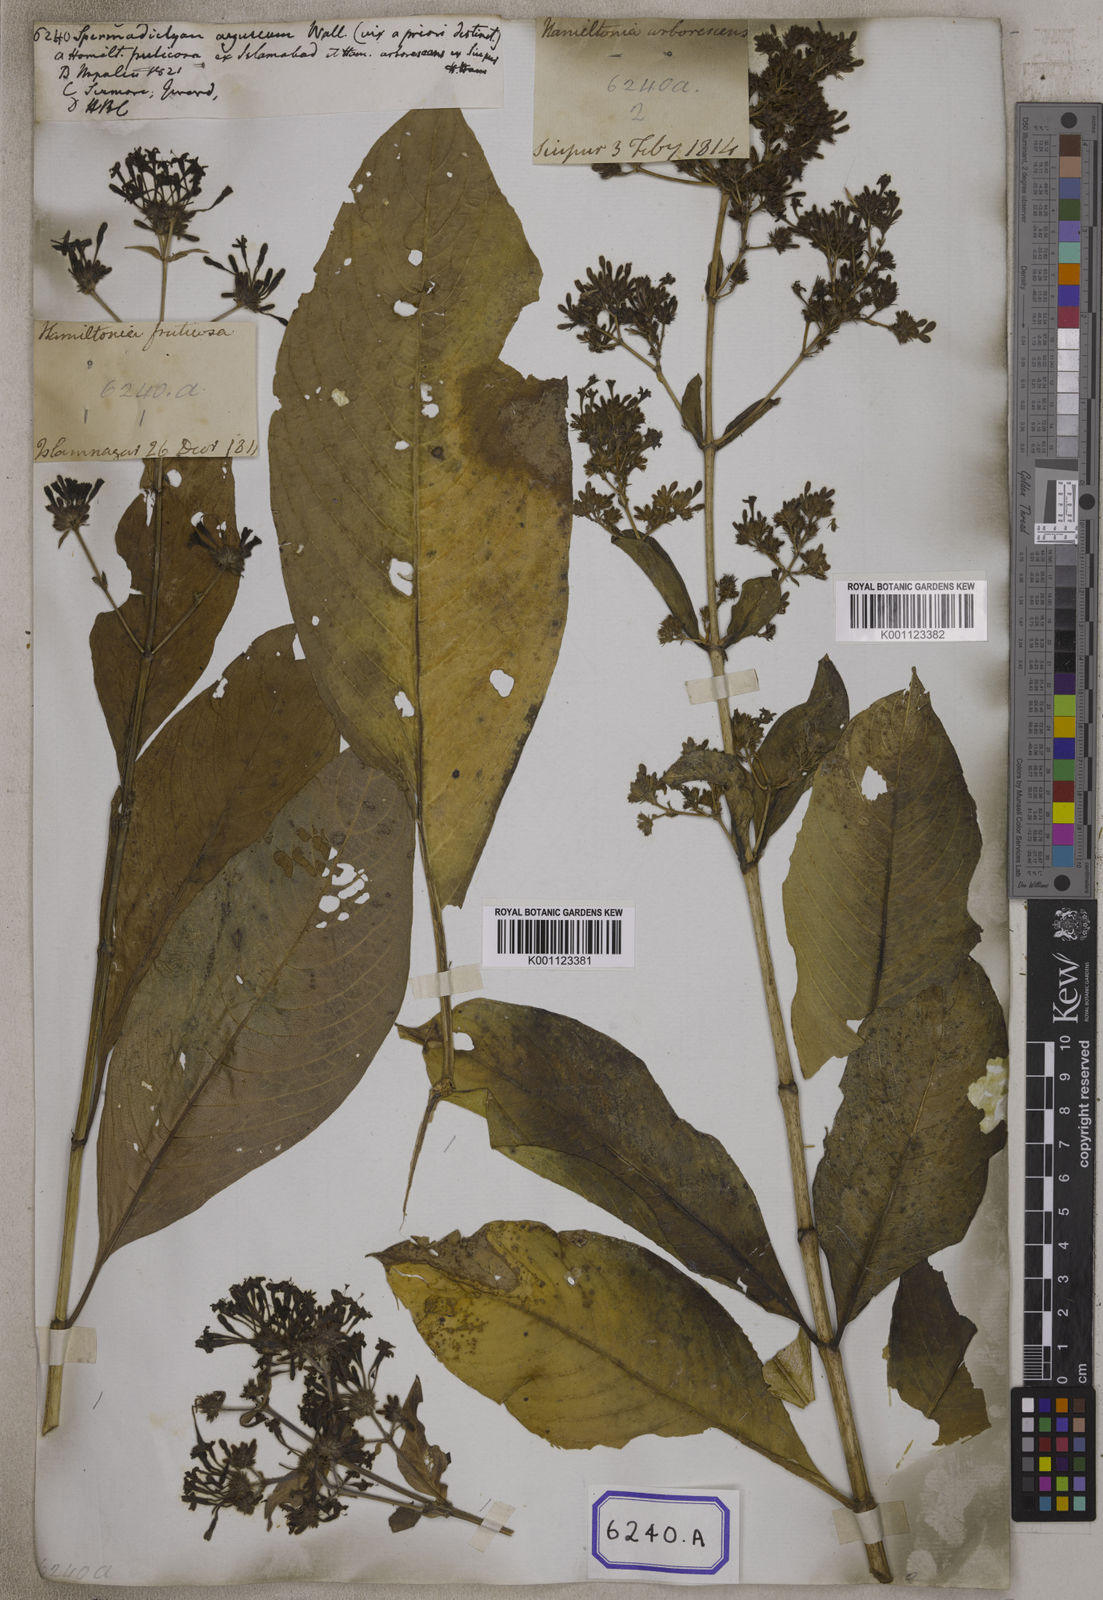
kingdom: Plantae
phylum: Tracheophyta
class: Magnoliopsida
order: Gentianales
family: Rubiaceae
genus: Spermadictyon
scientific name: Spermadictyon suaveolens
